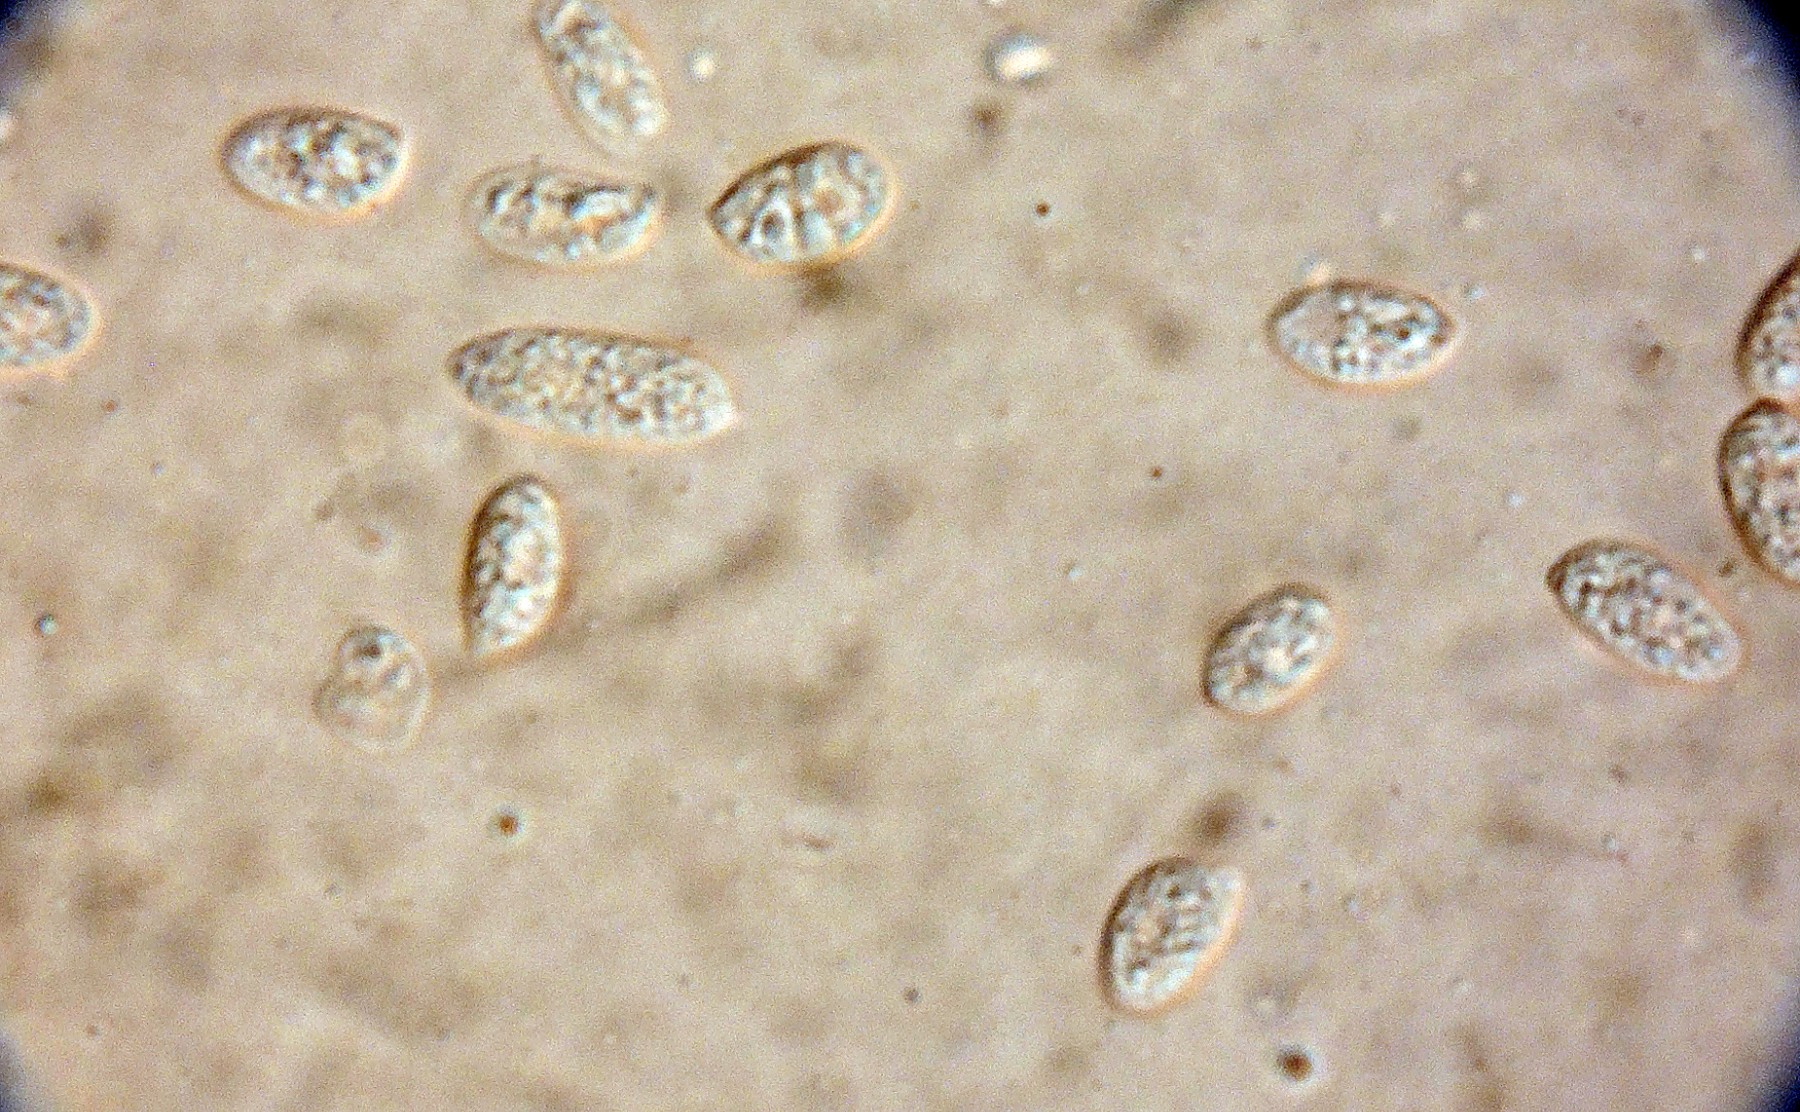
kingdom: Fungi
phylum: Basidiomycota
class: Agaricomycetes
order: Agaricales
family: Tricholomataceae
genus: Omphalina
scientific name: Omphalina pyxidata
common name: Cinnamon navel
